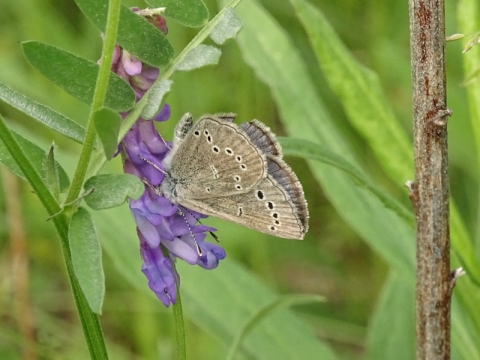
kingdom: Animalia
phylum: Arthropoda
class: Insecta
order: Lepidoptera
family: Lycaenidae
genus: Glaucopsyche
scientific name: Glaucopsyche lygdamus
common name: Silvery Blue
